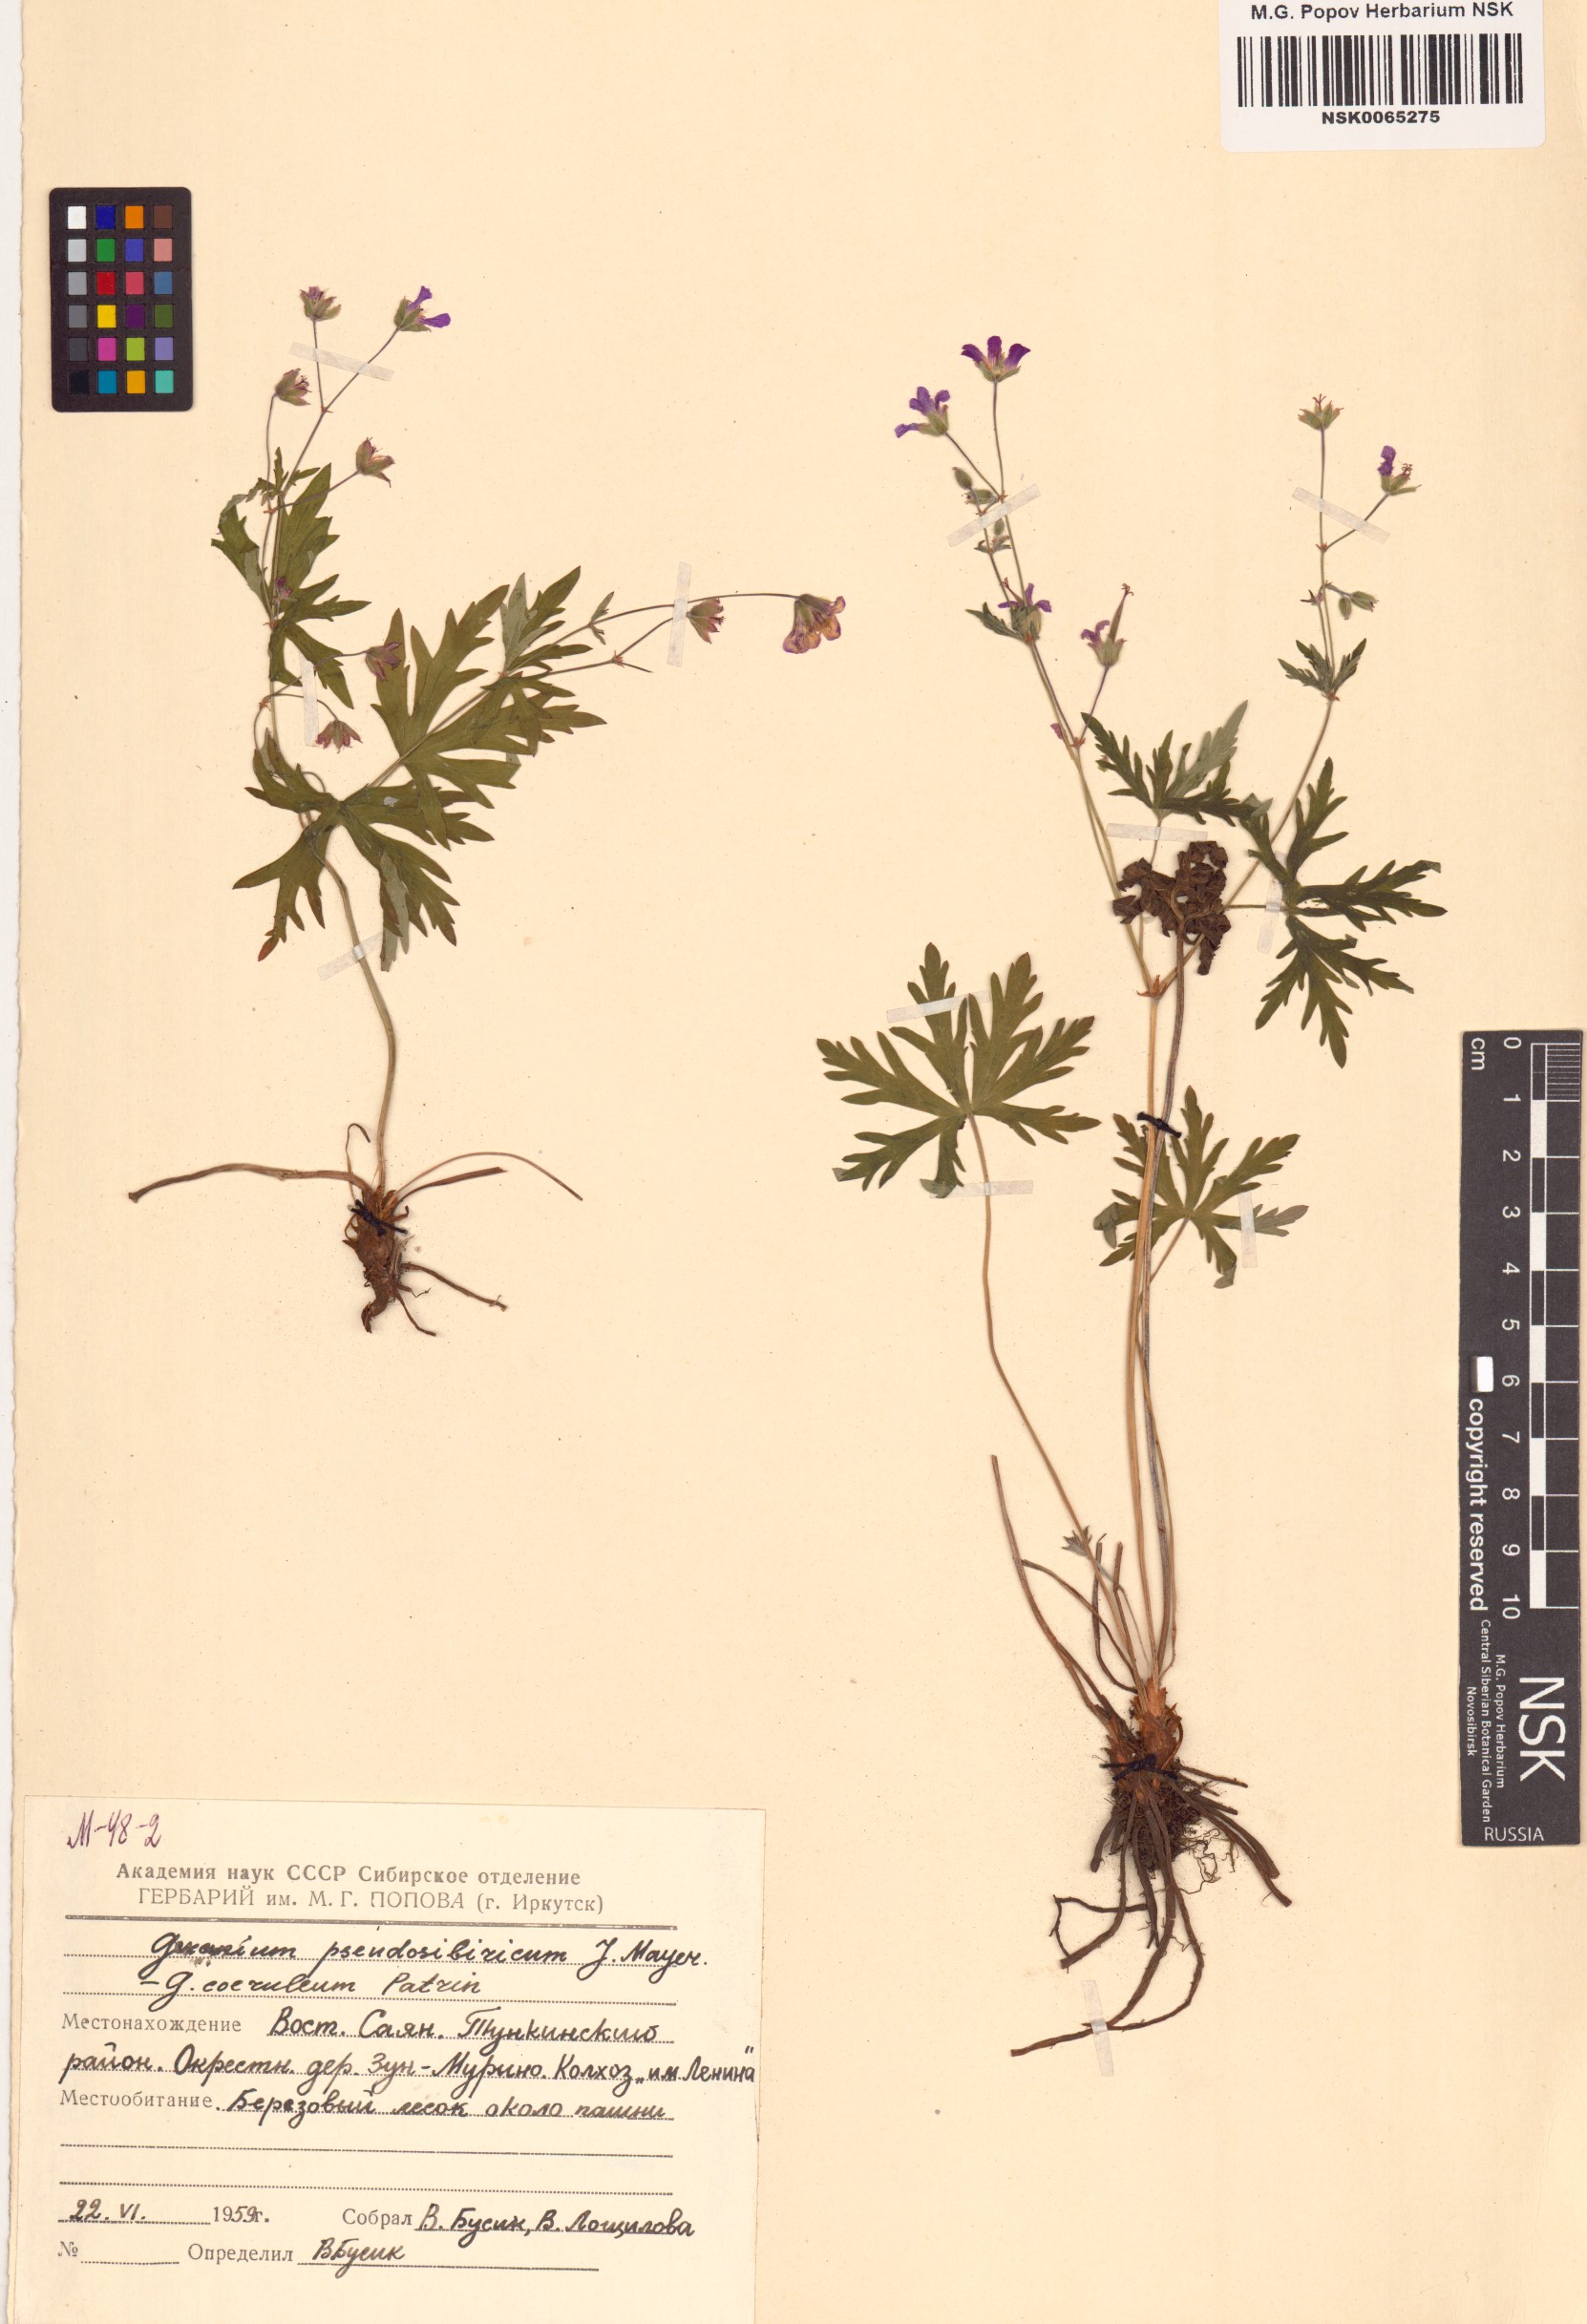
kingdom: Plantae
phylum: Tracheophyta
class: Magnoliopsida
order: Geraniales
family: Geraniaceae
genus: Geranium
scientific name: Geranium pseudosibiricum
